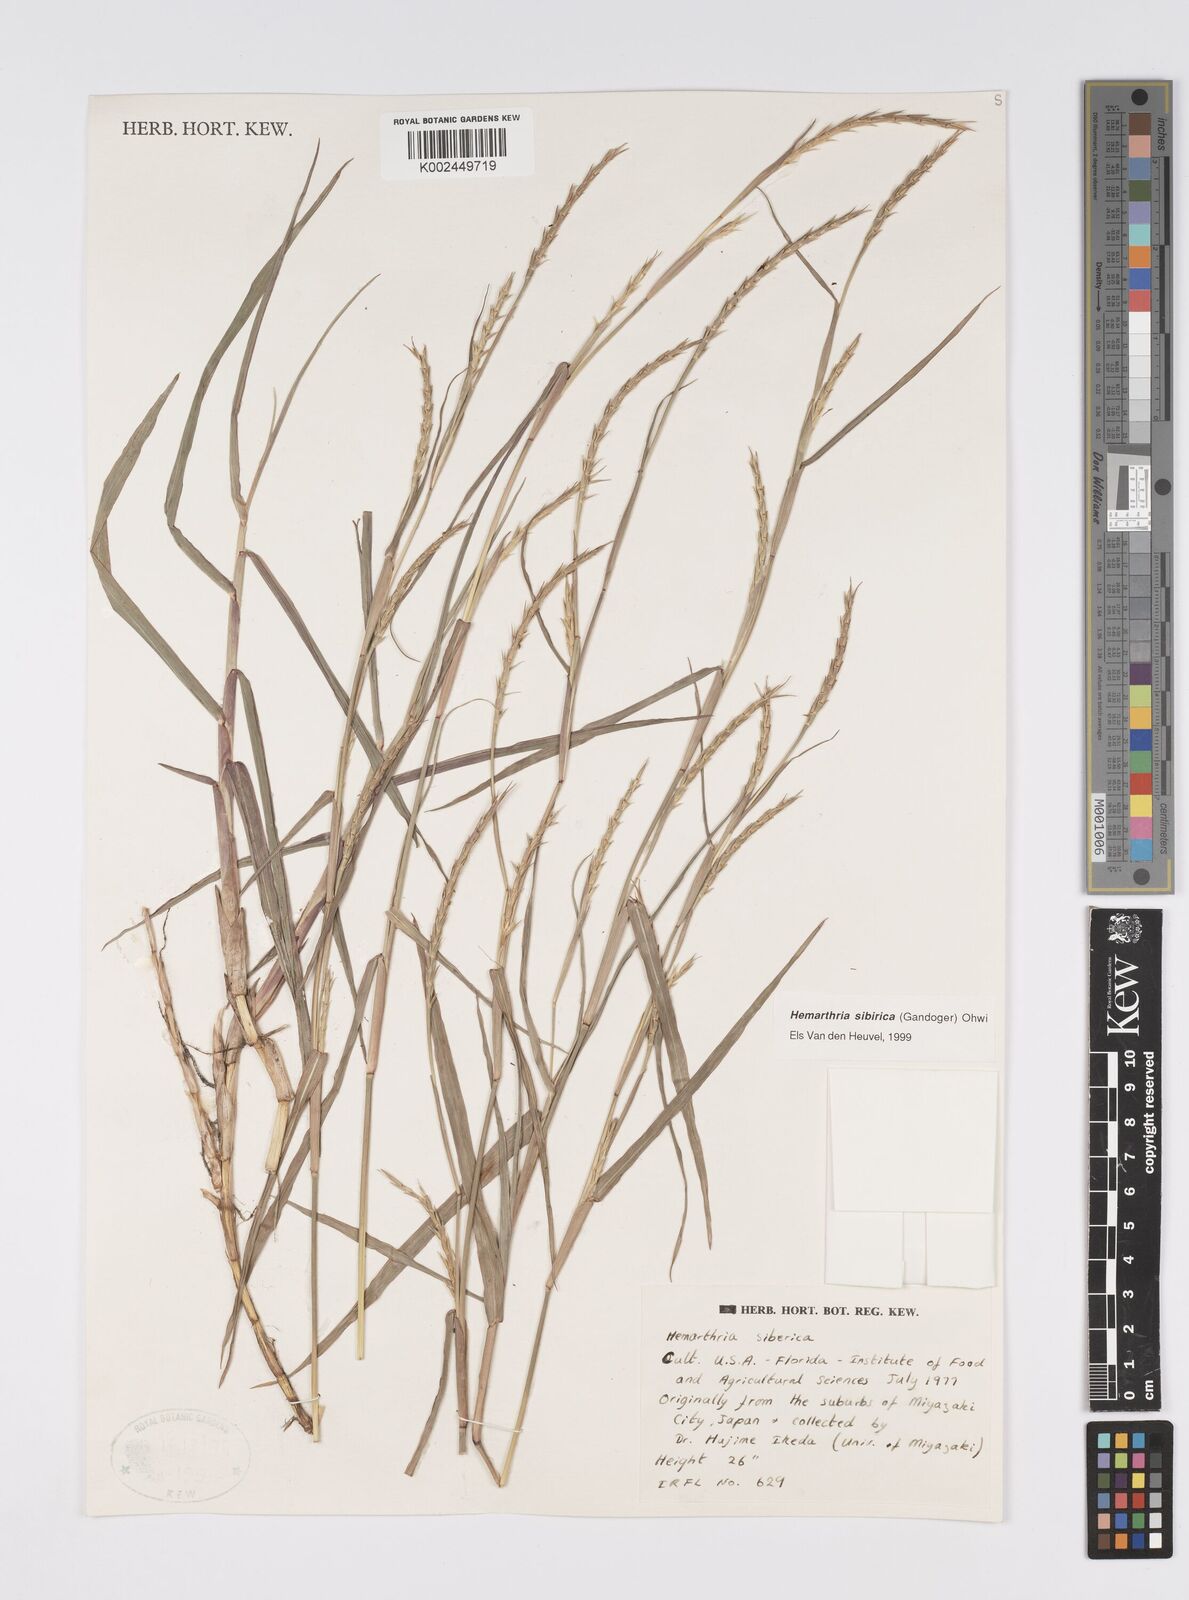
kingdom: Plantae
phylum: Tracheophyta
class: Liliopsida
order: Poales
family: Poaceae
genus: Hemarthria
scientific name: Hemarthria sibirica
